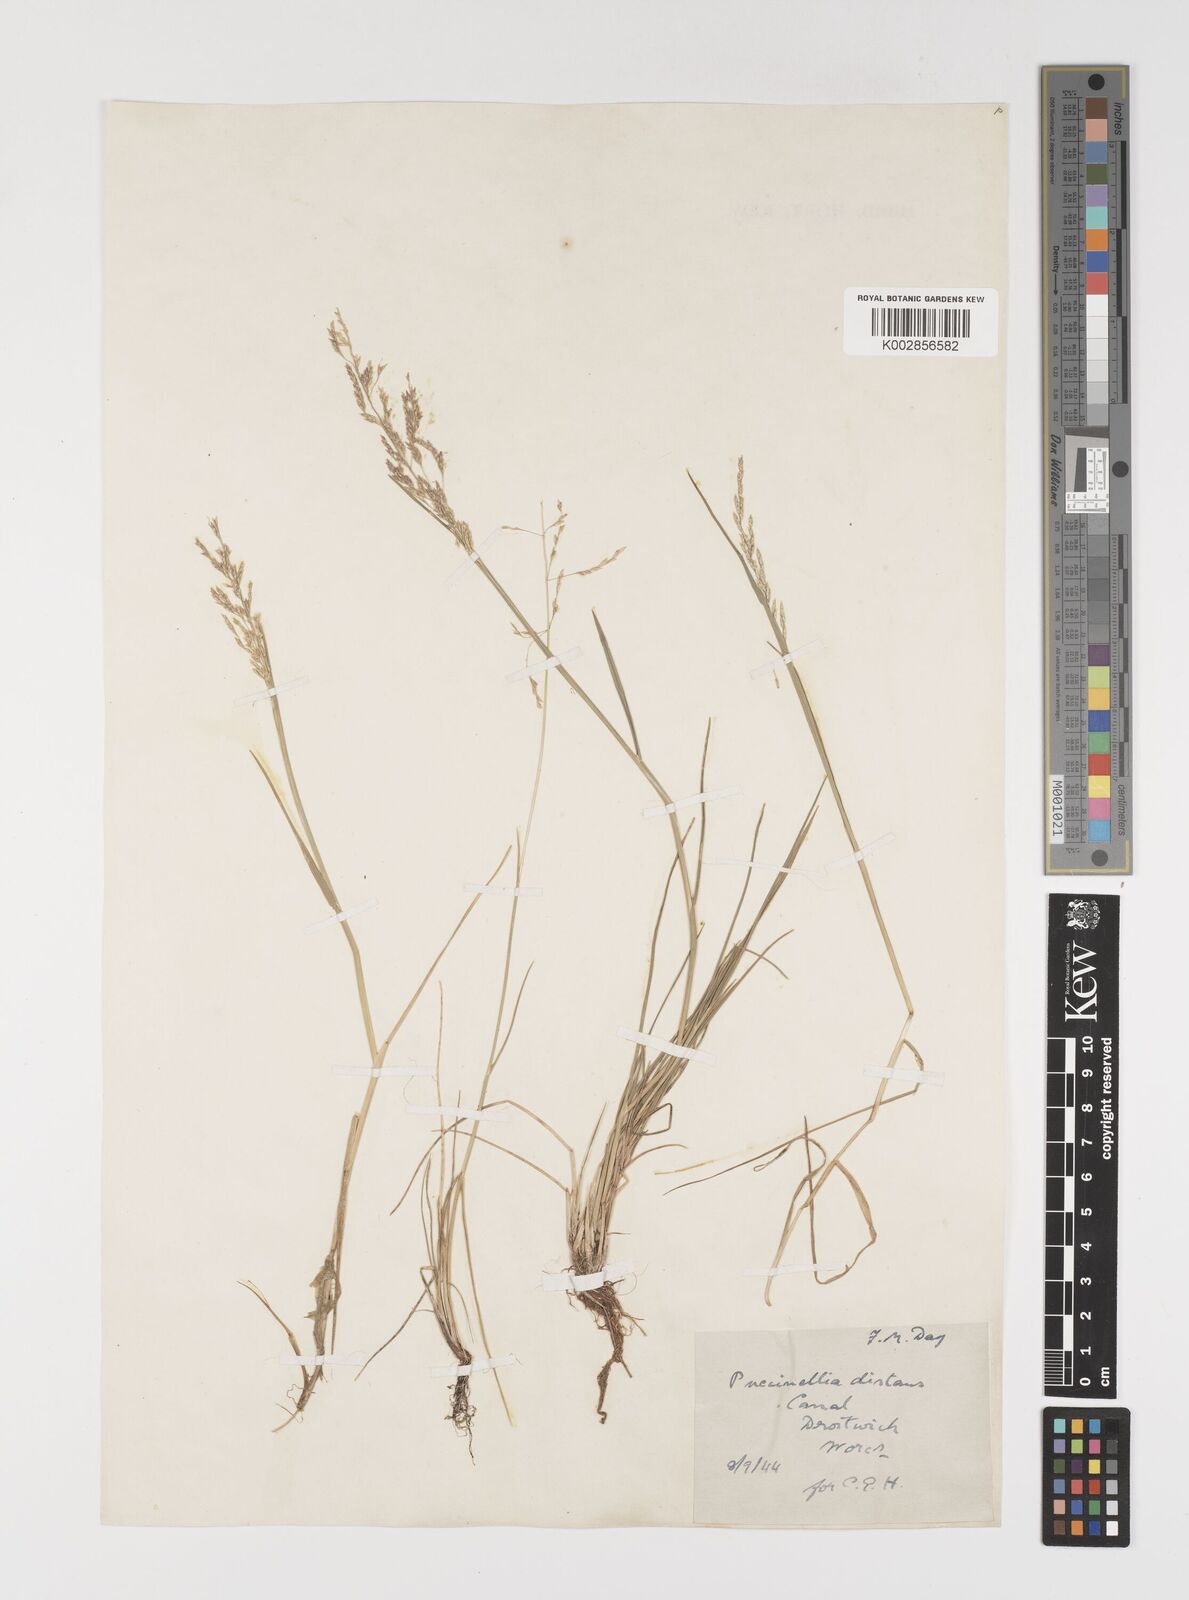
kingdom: Plantae
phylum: Tracheophyta
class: Liliopsida
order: Poales
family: Poaceae
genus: Puccinellia
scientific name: Puccinellia distans
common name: Weeping alkaligrass
